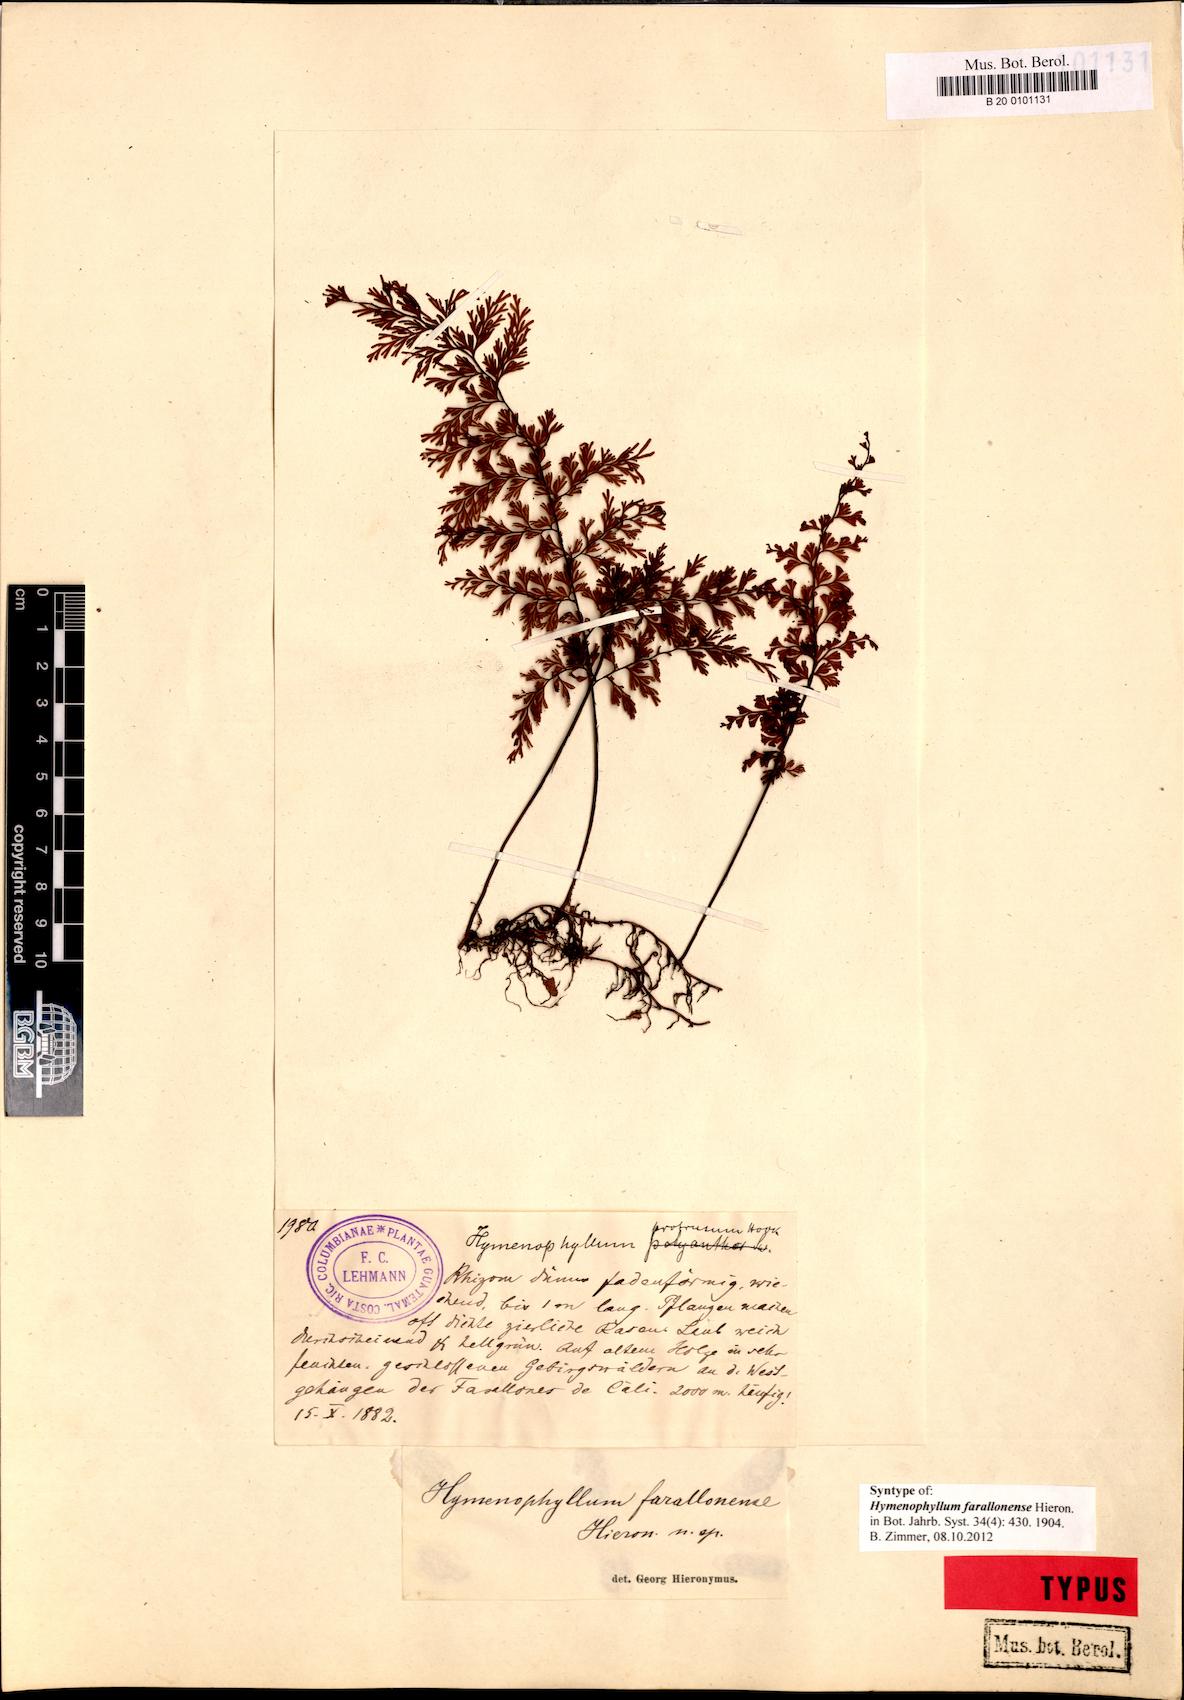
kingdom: Plantae
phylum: Tracheophyta
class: Polypodiopsida
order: Hymenophyllales
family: Hymenophyllaceae
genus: Hymenophyllum
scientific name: Hymenophyllum farallonense
